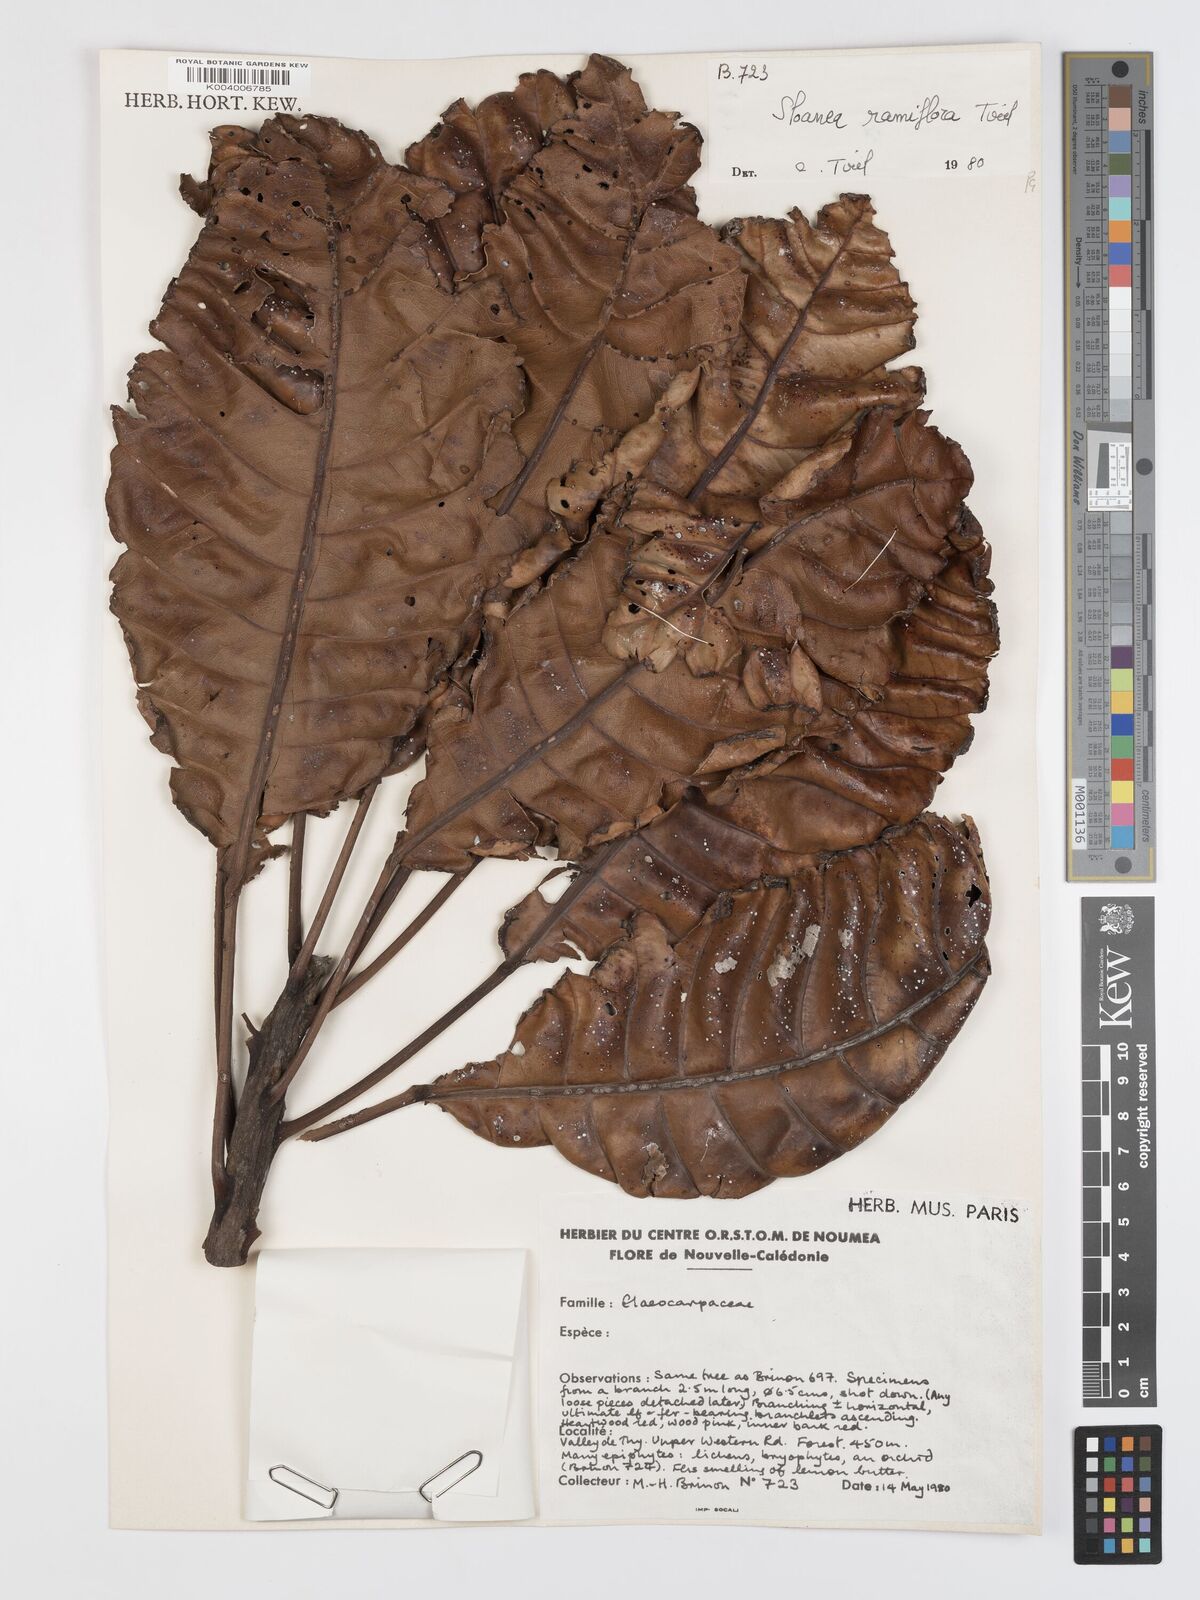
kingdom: Plantae
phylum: Tracheophyta
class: Magnoliopsida
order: Oxalidales
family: Elaeocarpaceae
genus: Sloanea
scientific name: Sloanea ramiflora
